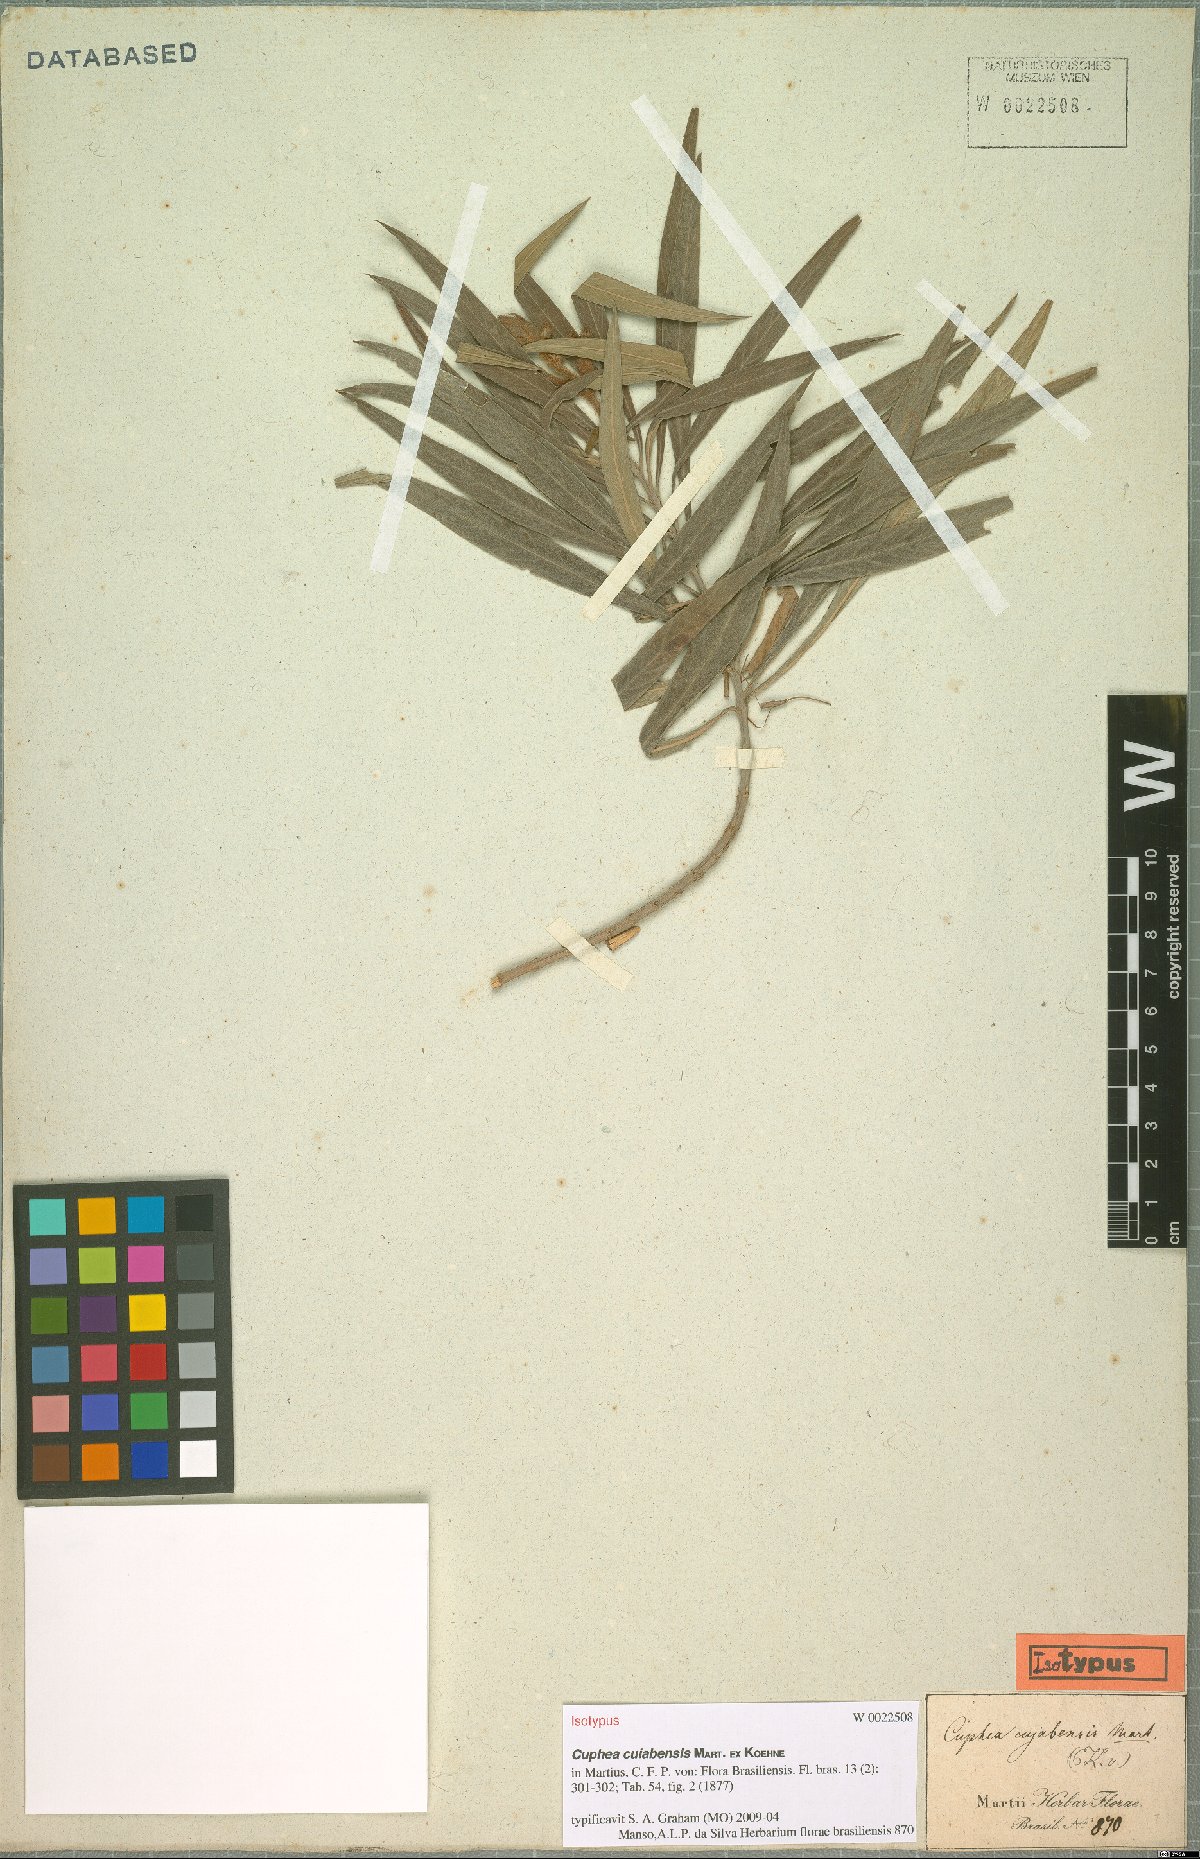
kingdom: Plantae
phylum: Tracheophyta
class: Magnoliopsida
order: Myrtales
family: Lythraceae
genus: Cuphea
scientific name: Cuphea cuiabensis
